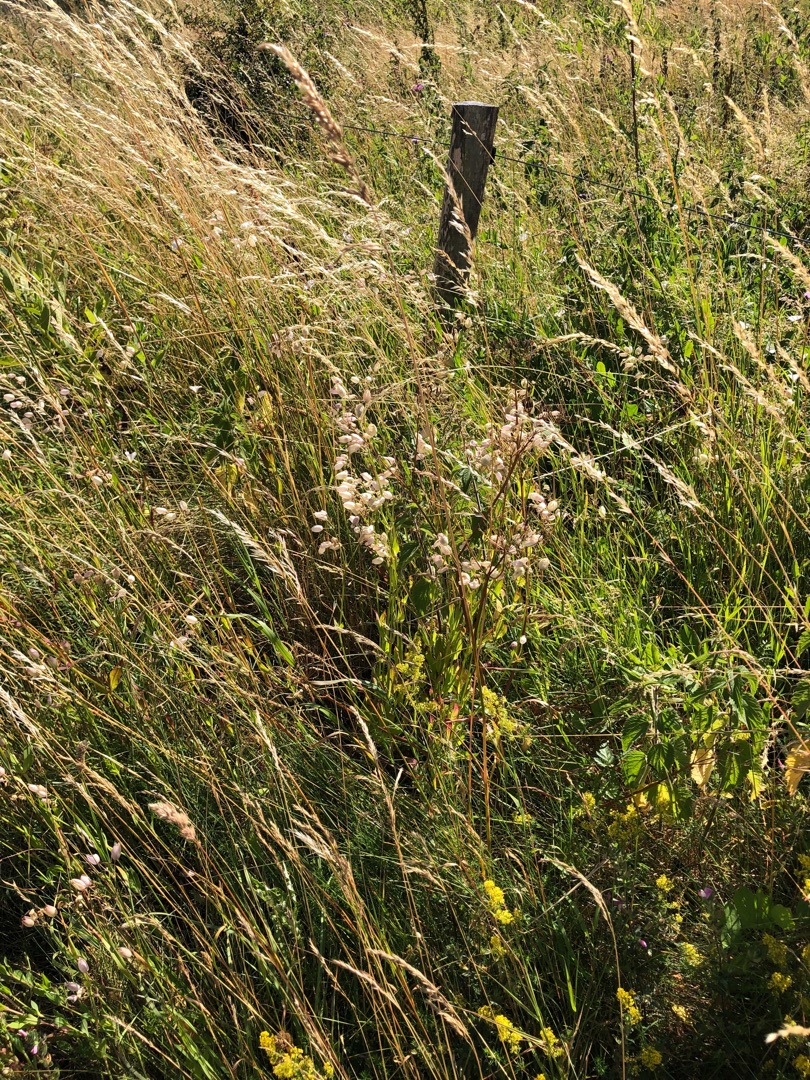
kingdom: Plantae
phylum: Tracheophyta
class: Magnoliopsida
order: Caryophyllales
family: Caryophyllaceae
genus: Silene
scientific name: Silene vulgaris
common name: Blæresmælde
